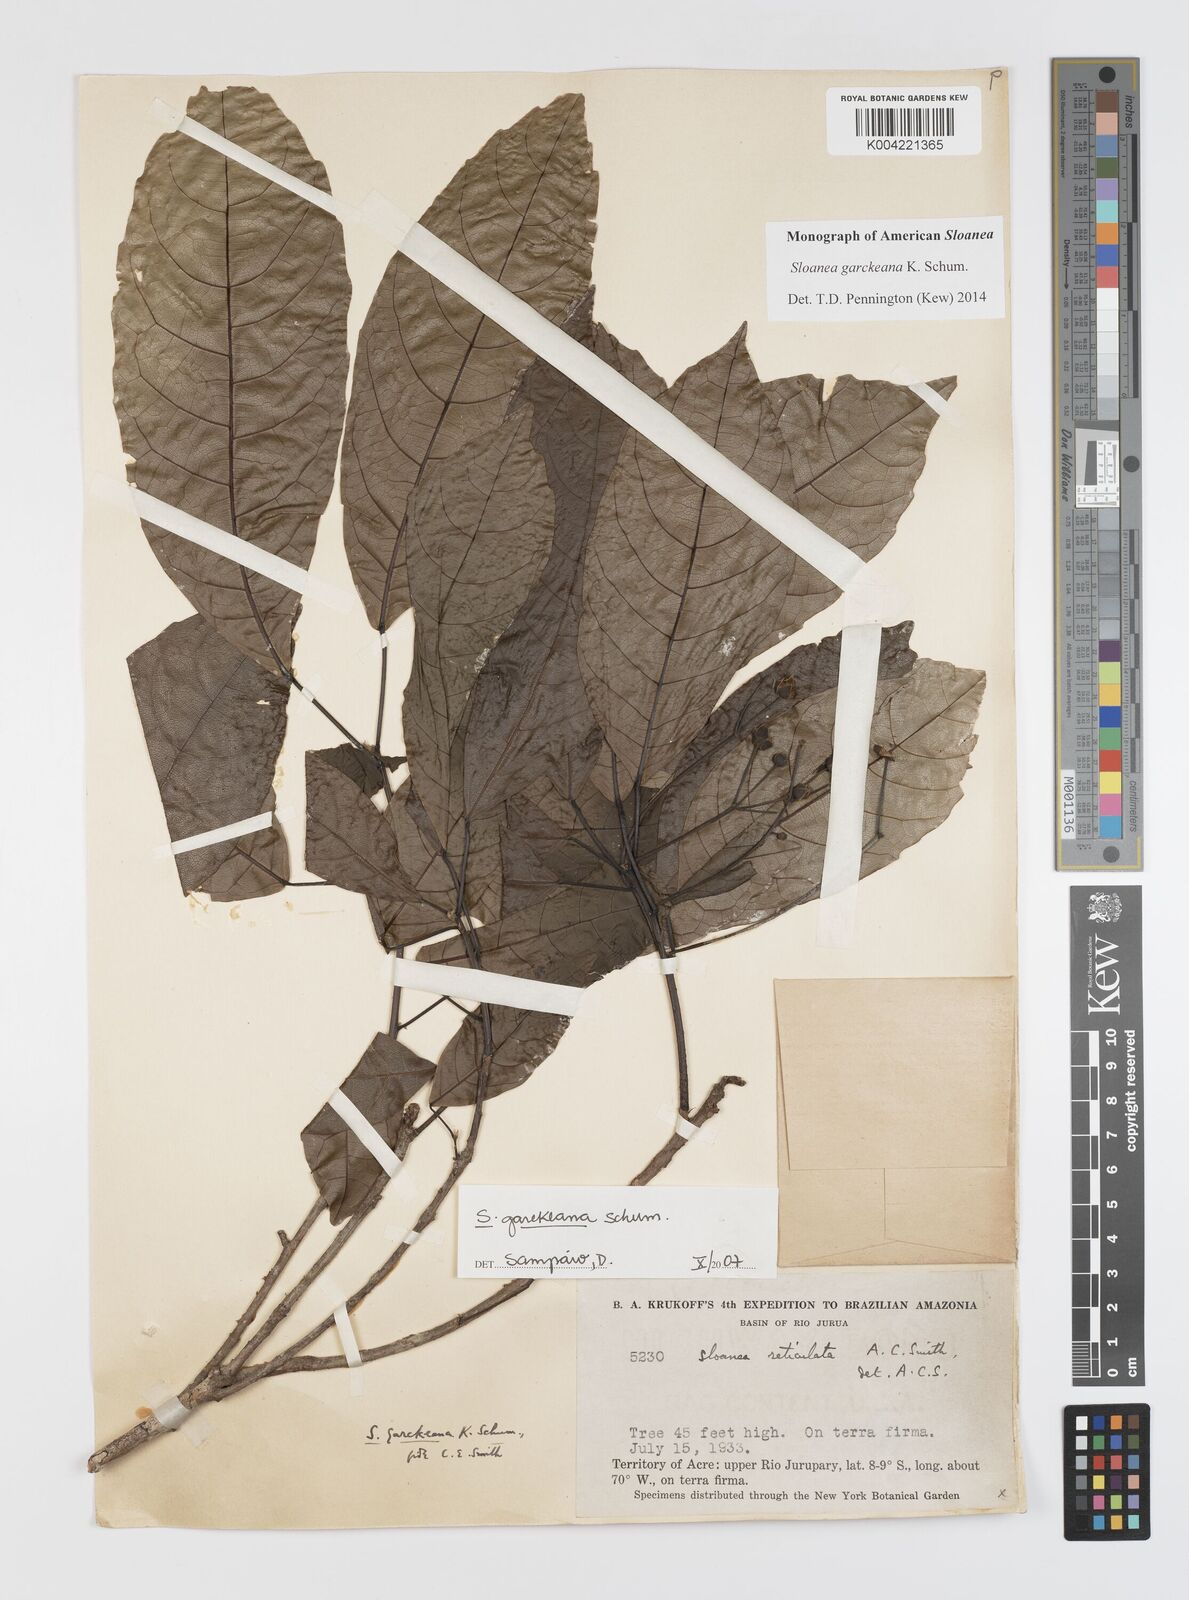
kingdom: Plantae
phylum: Tracheophyta
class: Magnoliopsida
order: Oxalidales
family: Elaeocarpaceae
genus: Sloanea
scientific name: Sloanea garckeana
